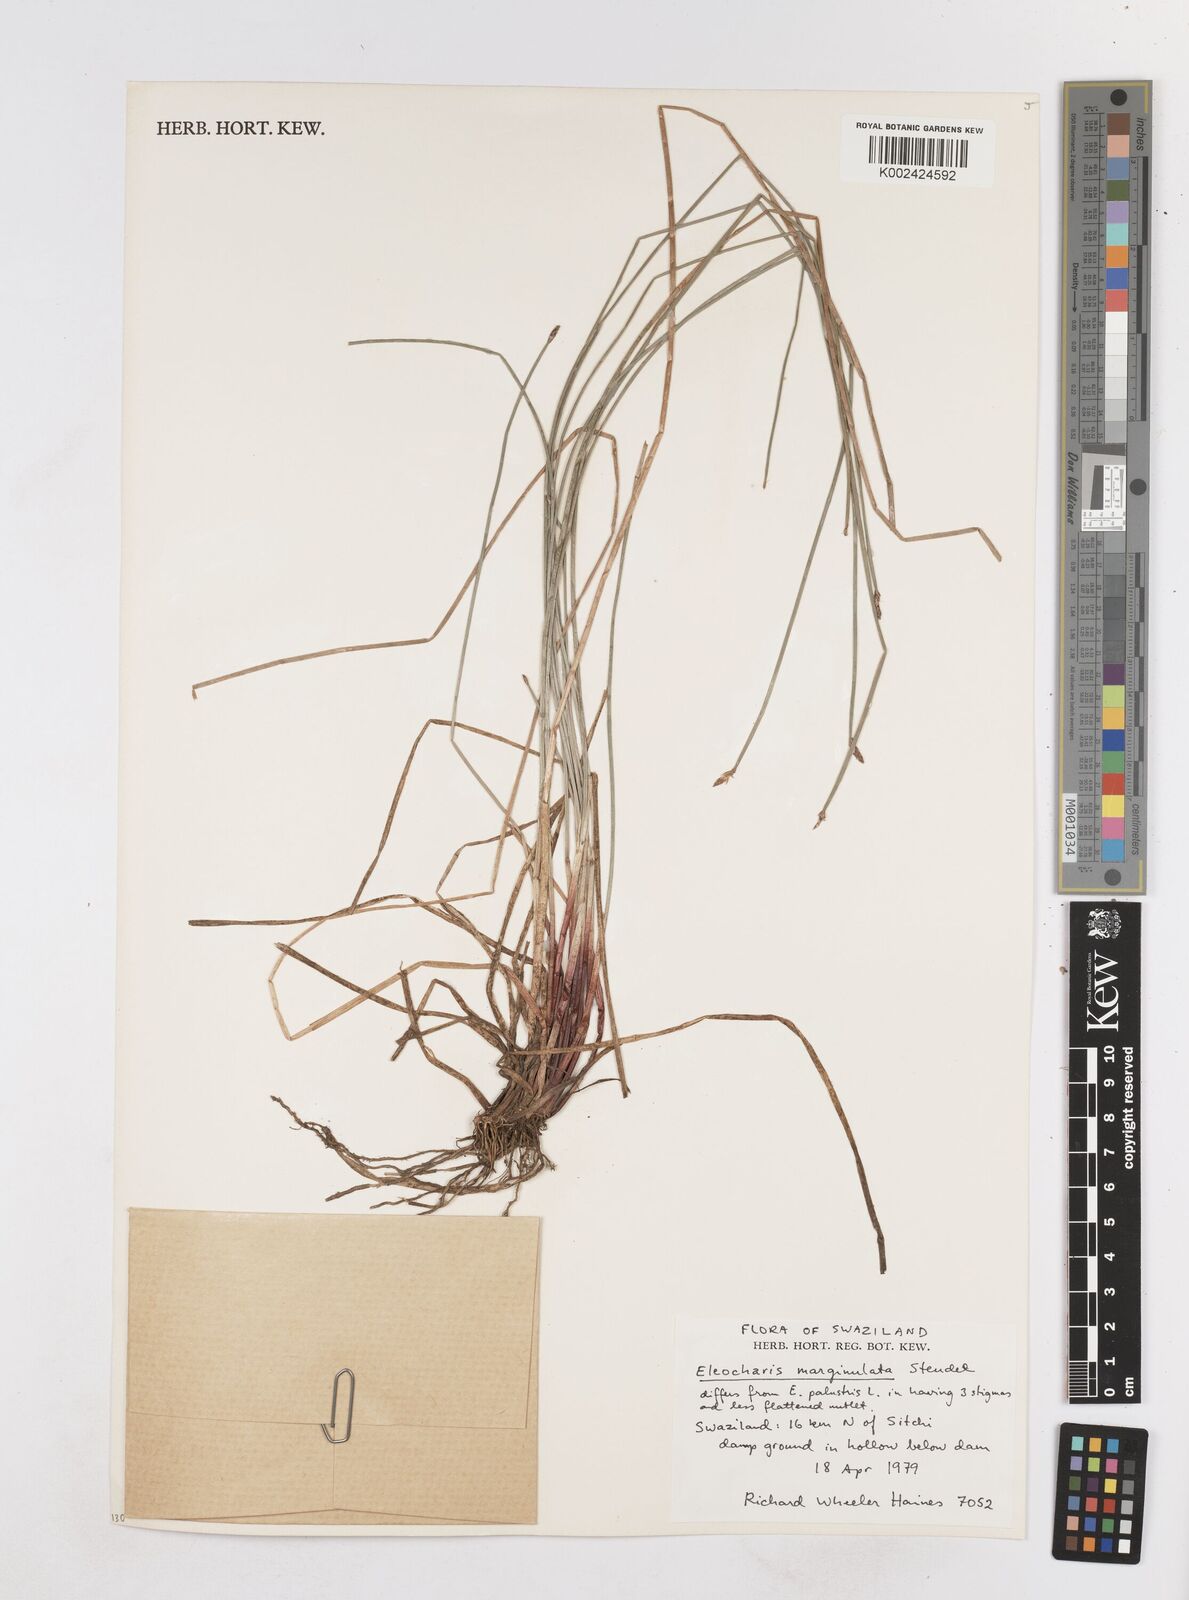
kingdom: Plantae
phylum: Tracheophyta
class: Liliopsida
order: Poales
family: Cyperaceae
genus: Eleocharis
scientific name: Eleocharis marginulata
